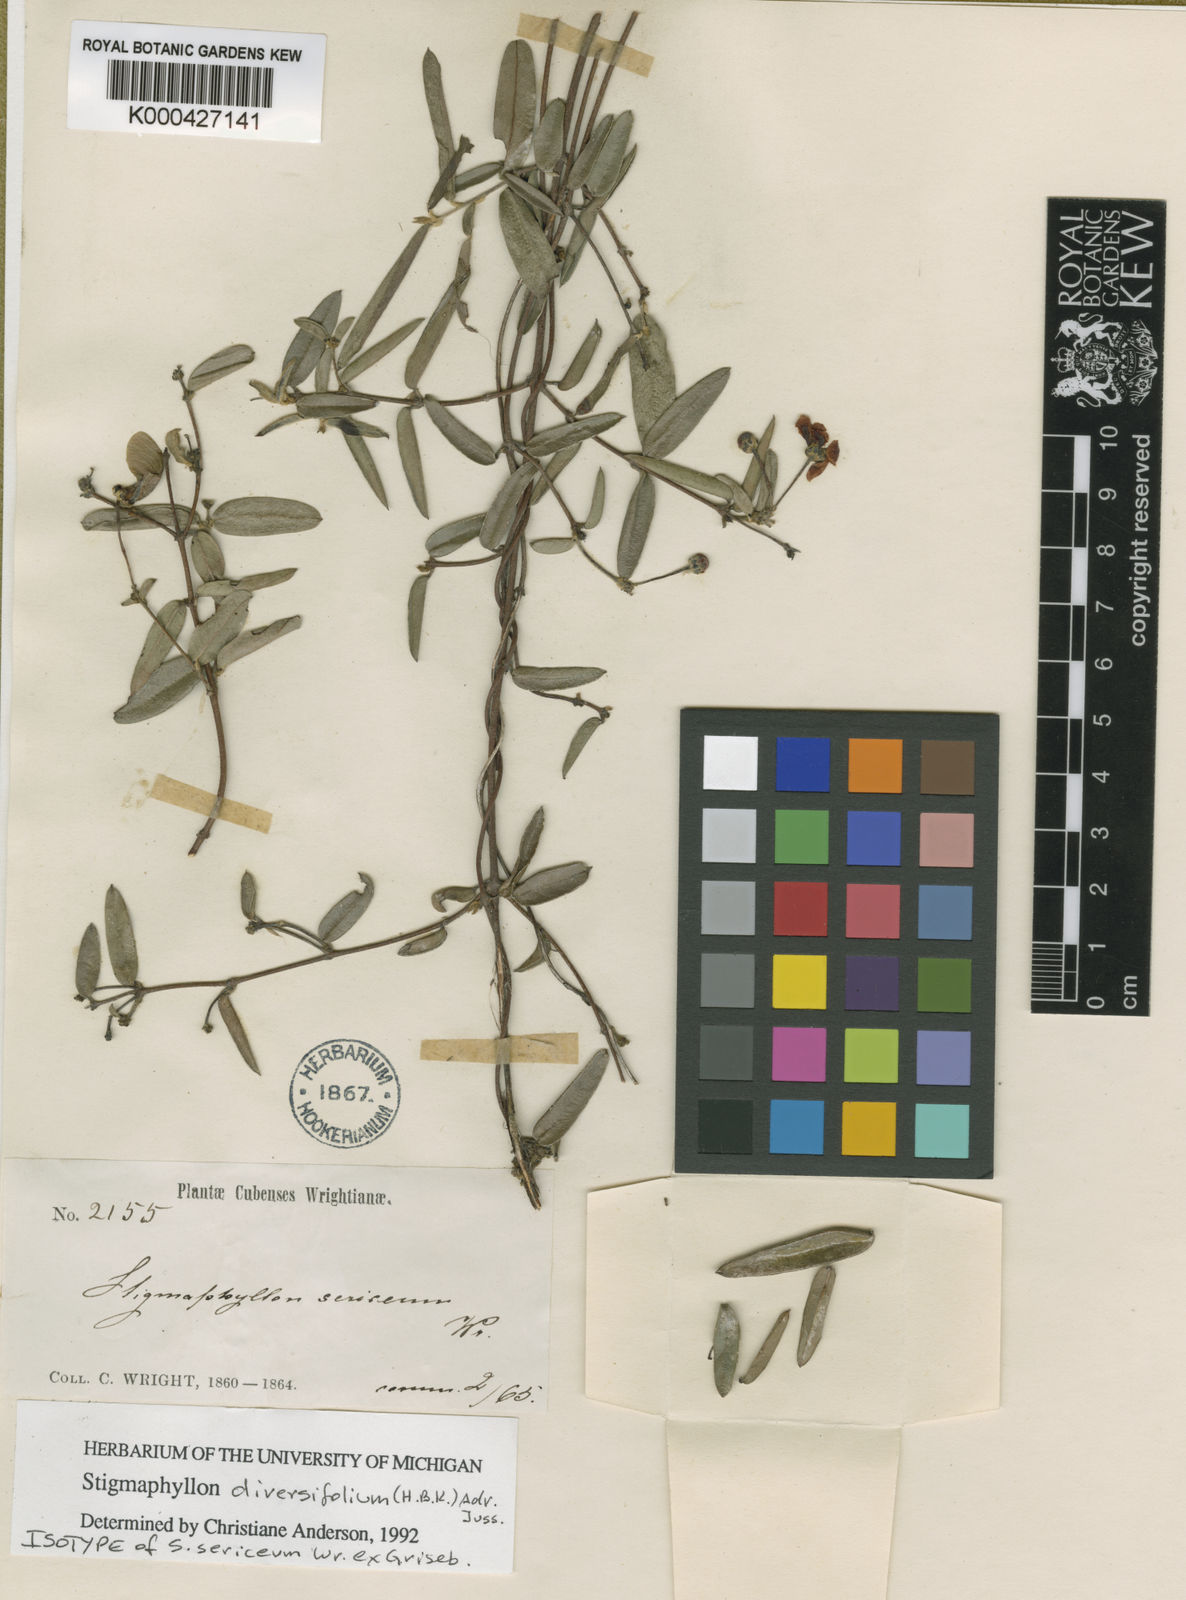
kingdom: Plantae
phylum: Tracheophyta
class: Magnoliopsida
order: Malpighiales
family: Malpighiaceae
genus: Stigmaphyllon
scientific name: Stigmaphyllon diversifolium
